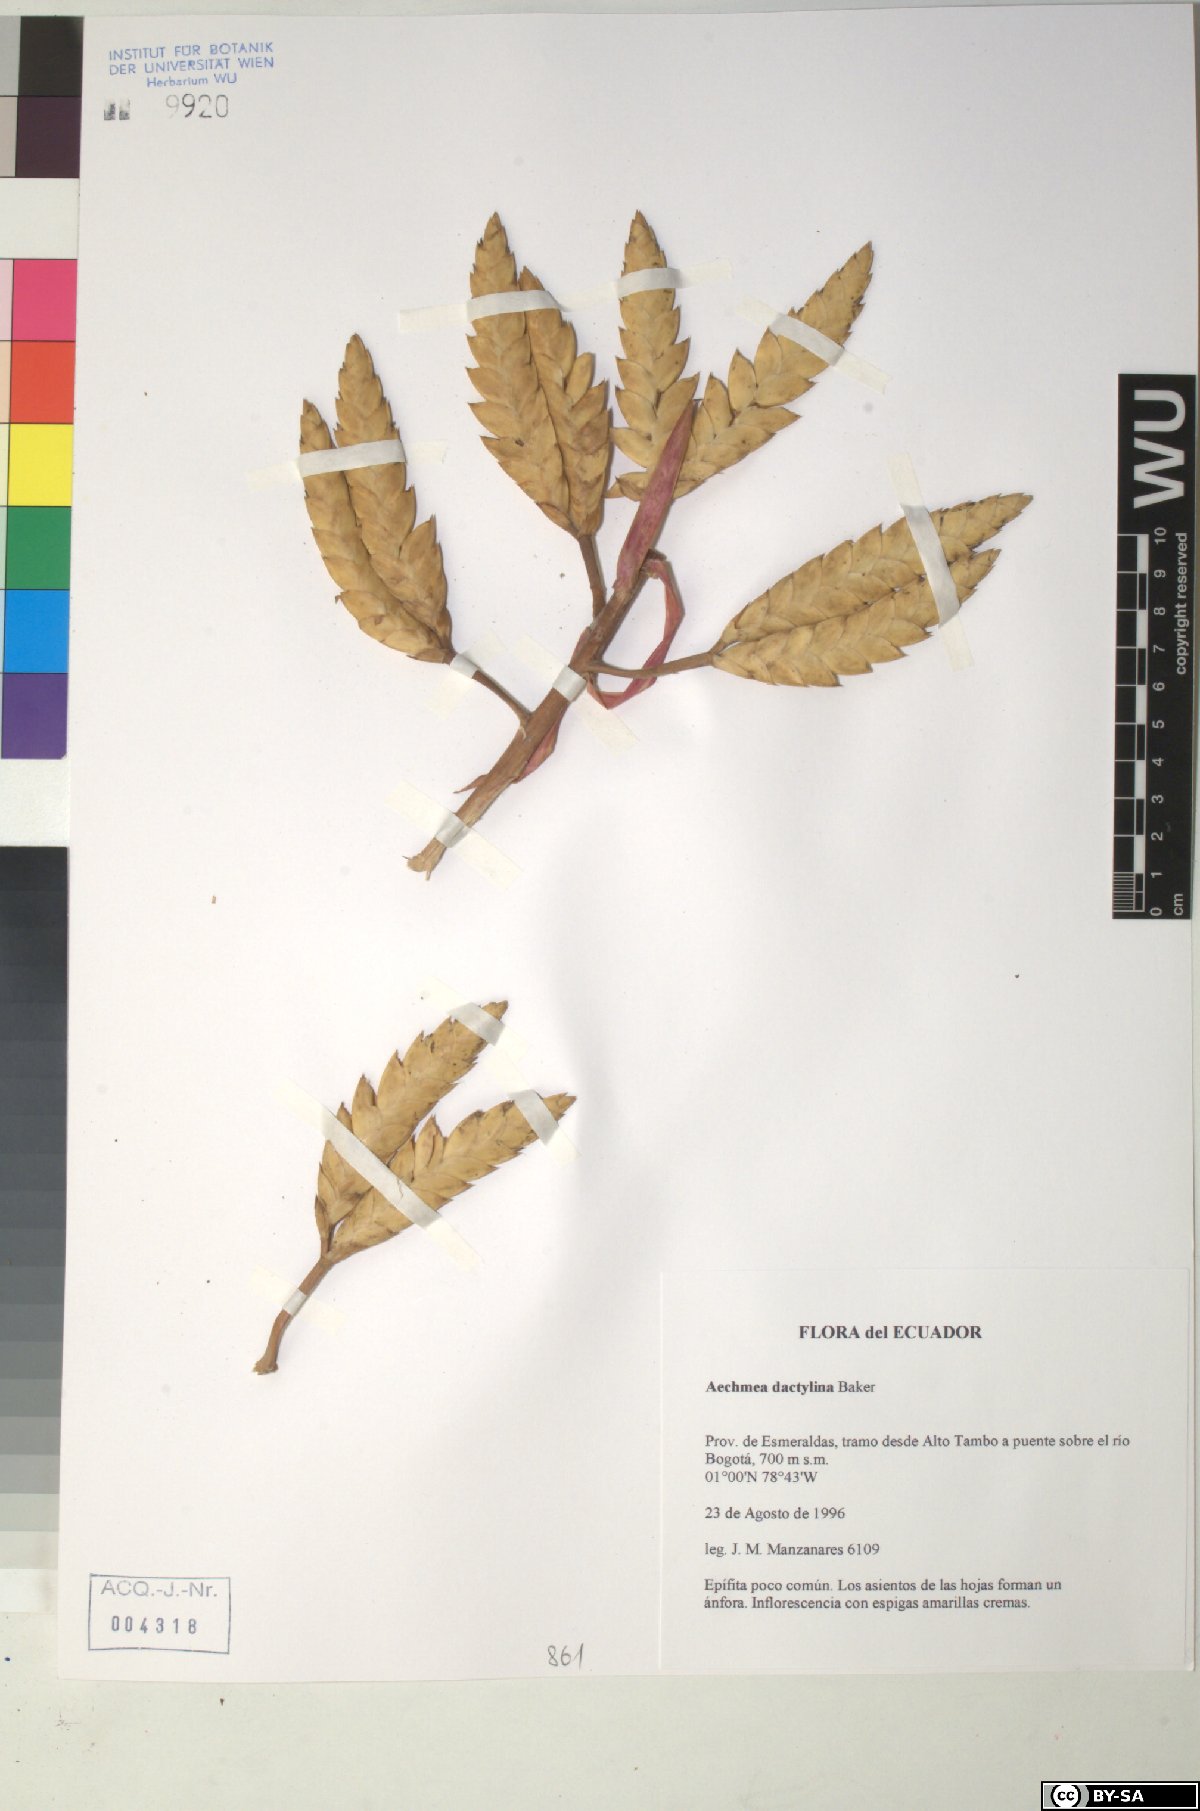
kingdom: Plantae
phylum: Tracheophyta
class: Liliopsida
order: Poales
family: Bromeliaceae
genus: Aechmea
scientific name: Aechmea dactylina
